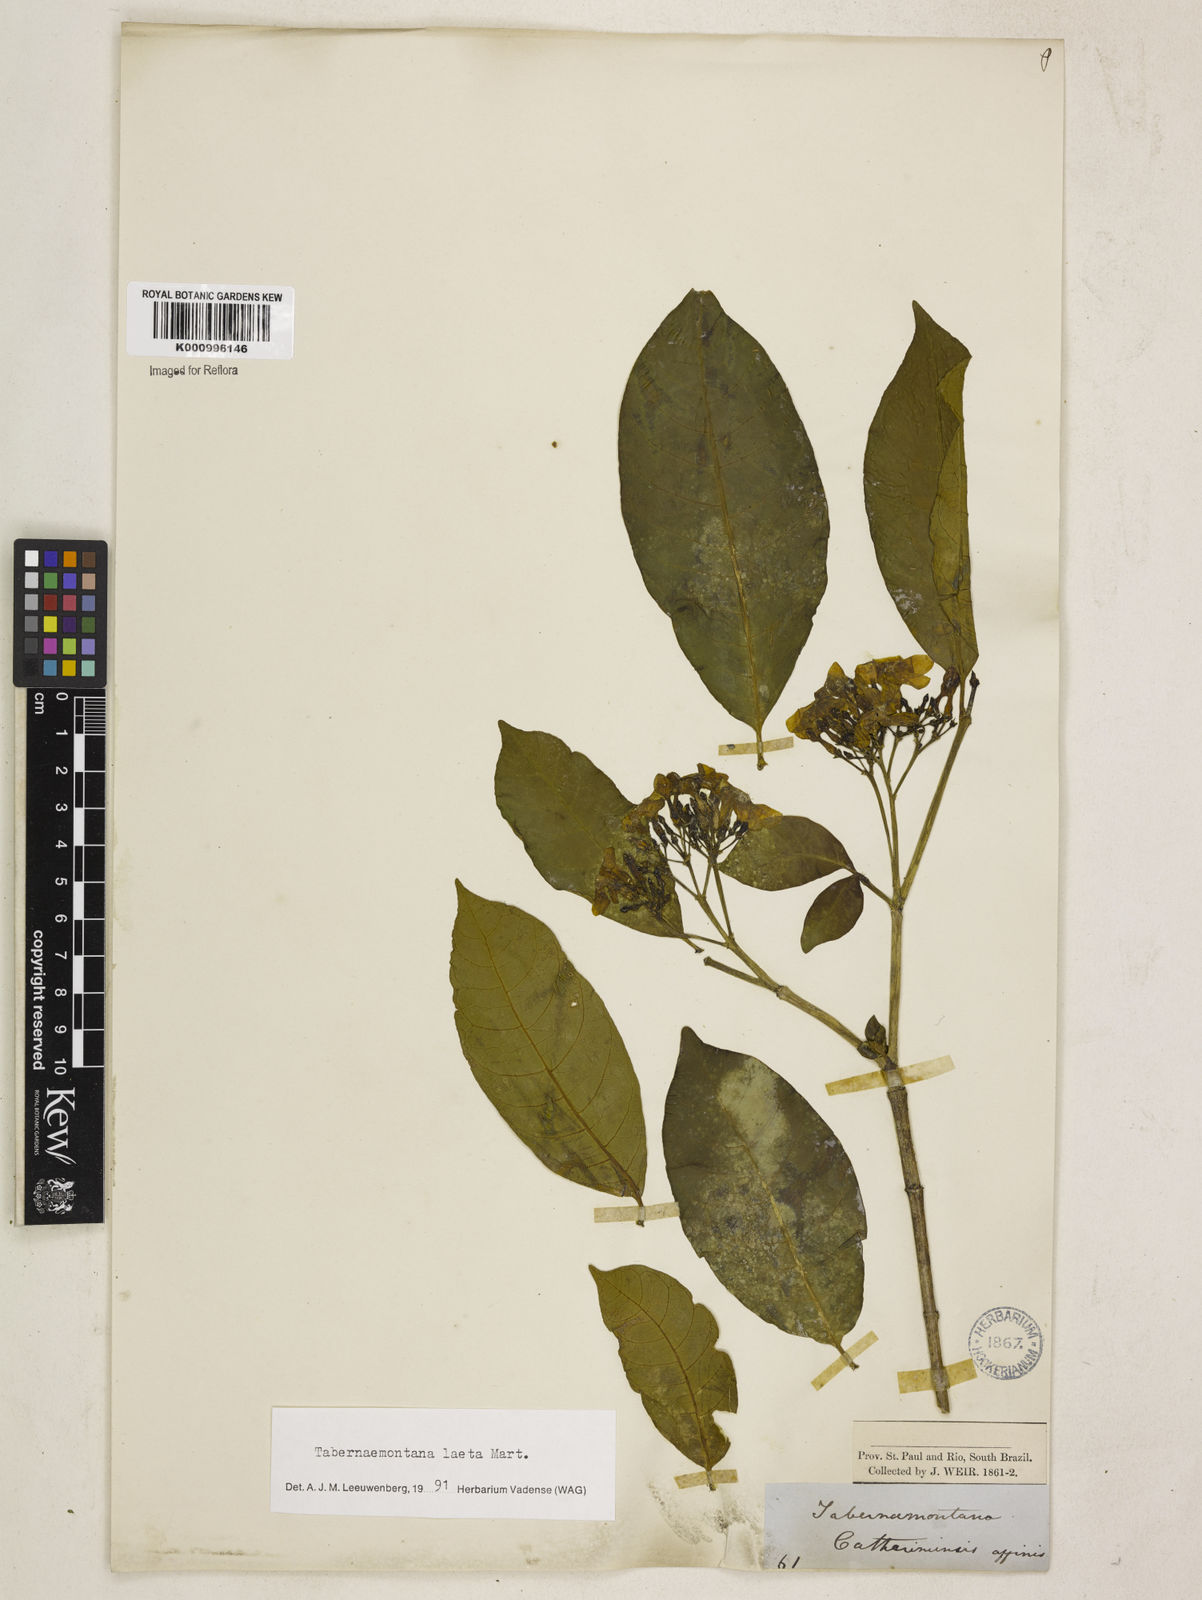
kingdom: Plantae
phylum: Tracheophyta
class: Magnoliopsida
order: Gentianales
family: Apocynaceae
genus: Tabernaemontana
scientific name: Tabernaemontana laeta
